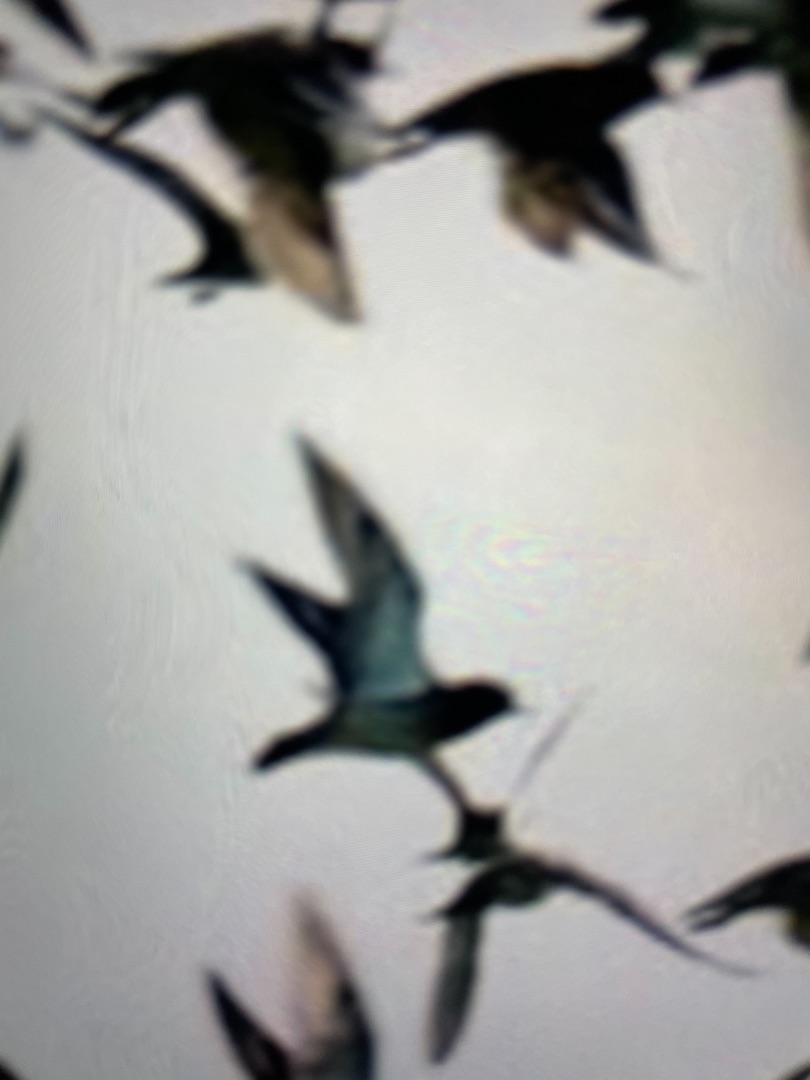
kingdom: Animalia
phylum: Chordata
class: Aves
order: Charadriiformes
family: Charadriidae
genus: Pluvialis
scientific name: Pluvialis apricaria
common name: Hjejle
